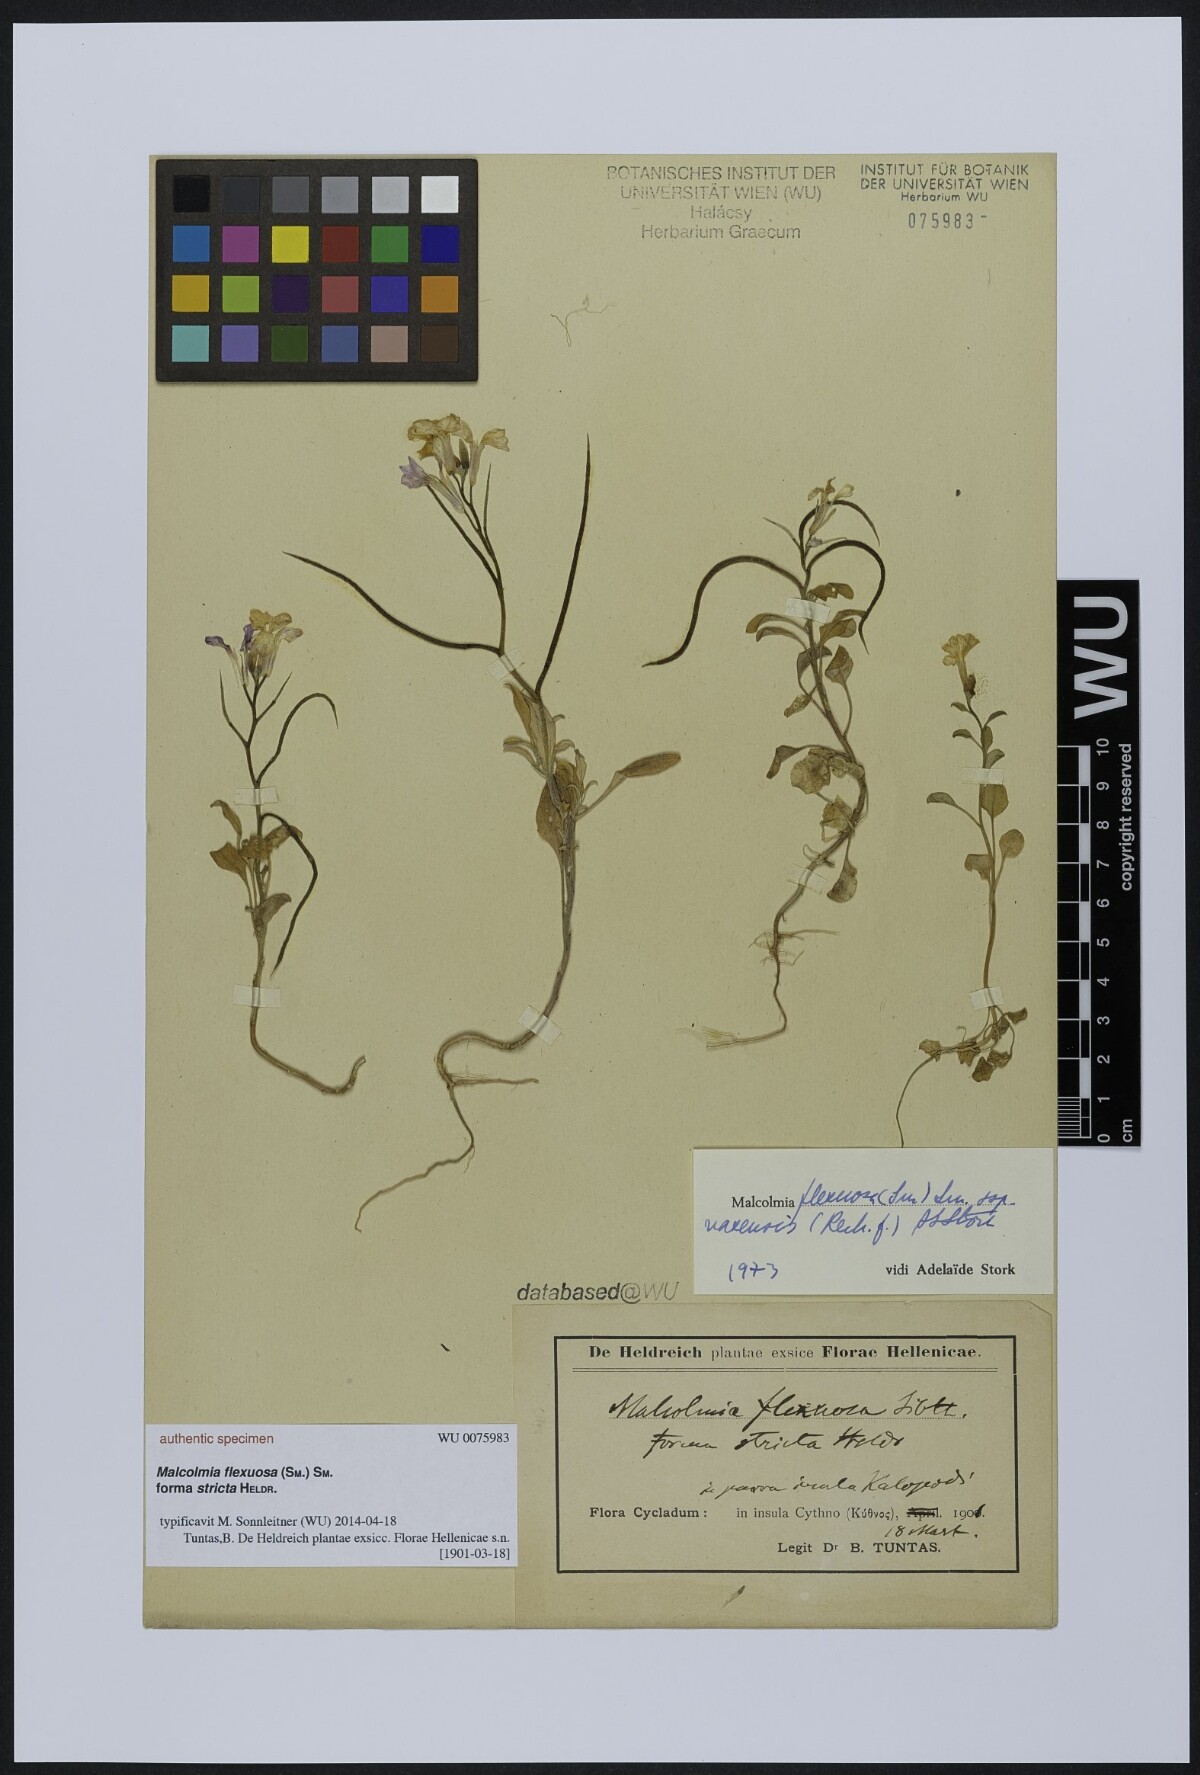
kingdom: Plantae
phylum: Tracheophyta
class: Magnoliopsida
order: Brassicales
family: Brassicaceae
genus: Malcolmia
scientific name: Malcolmia flexuosa
